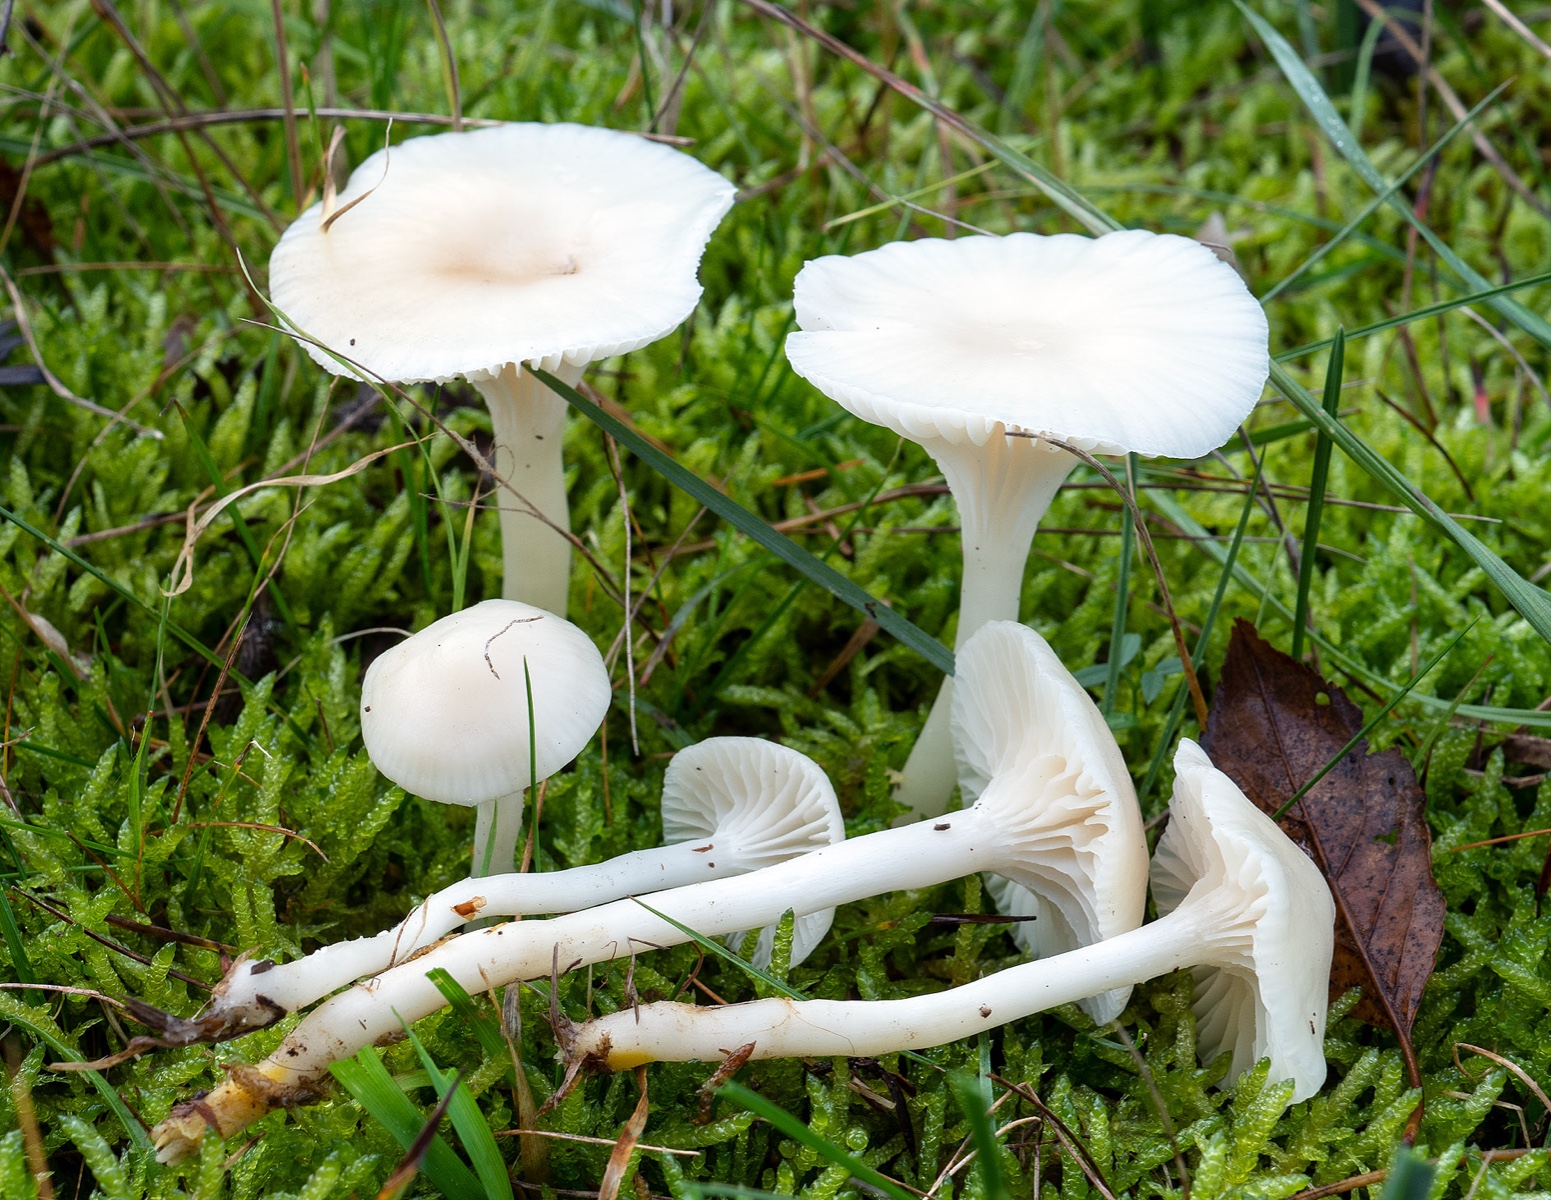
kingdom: Fungi
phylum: Basidiomycota
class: Agaricomycetes
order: Agaricales
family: Hygrophoraceae
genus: Cuphophyllus
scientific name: Cuphophyllus virgineus
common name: snehvid vokshat
